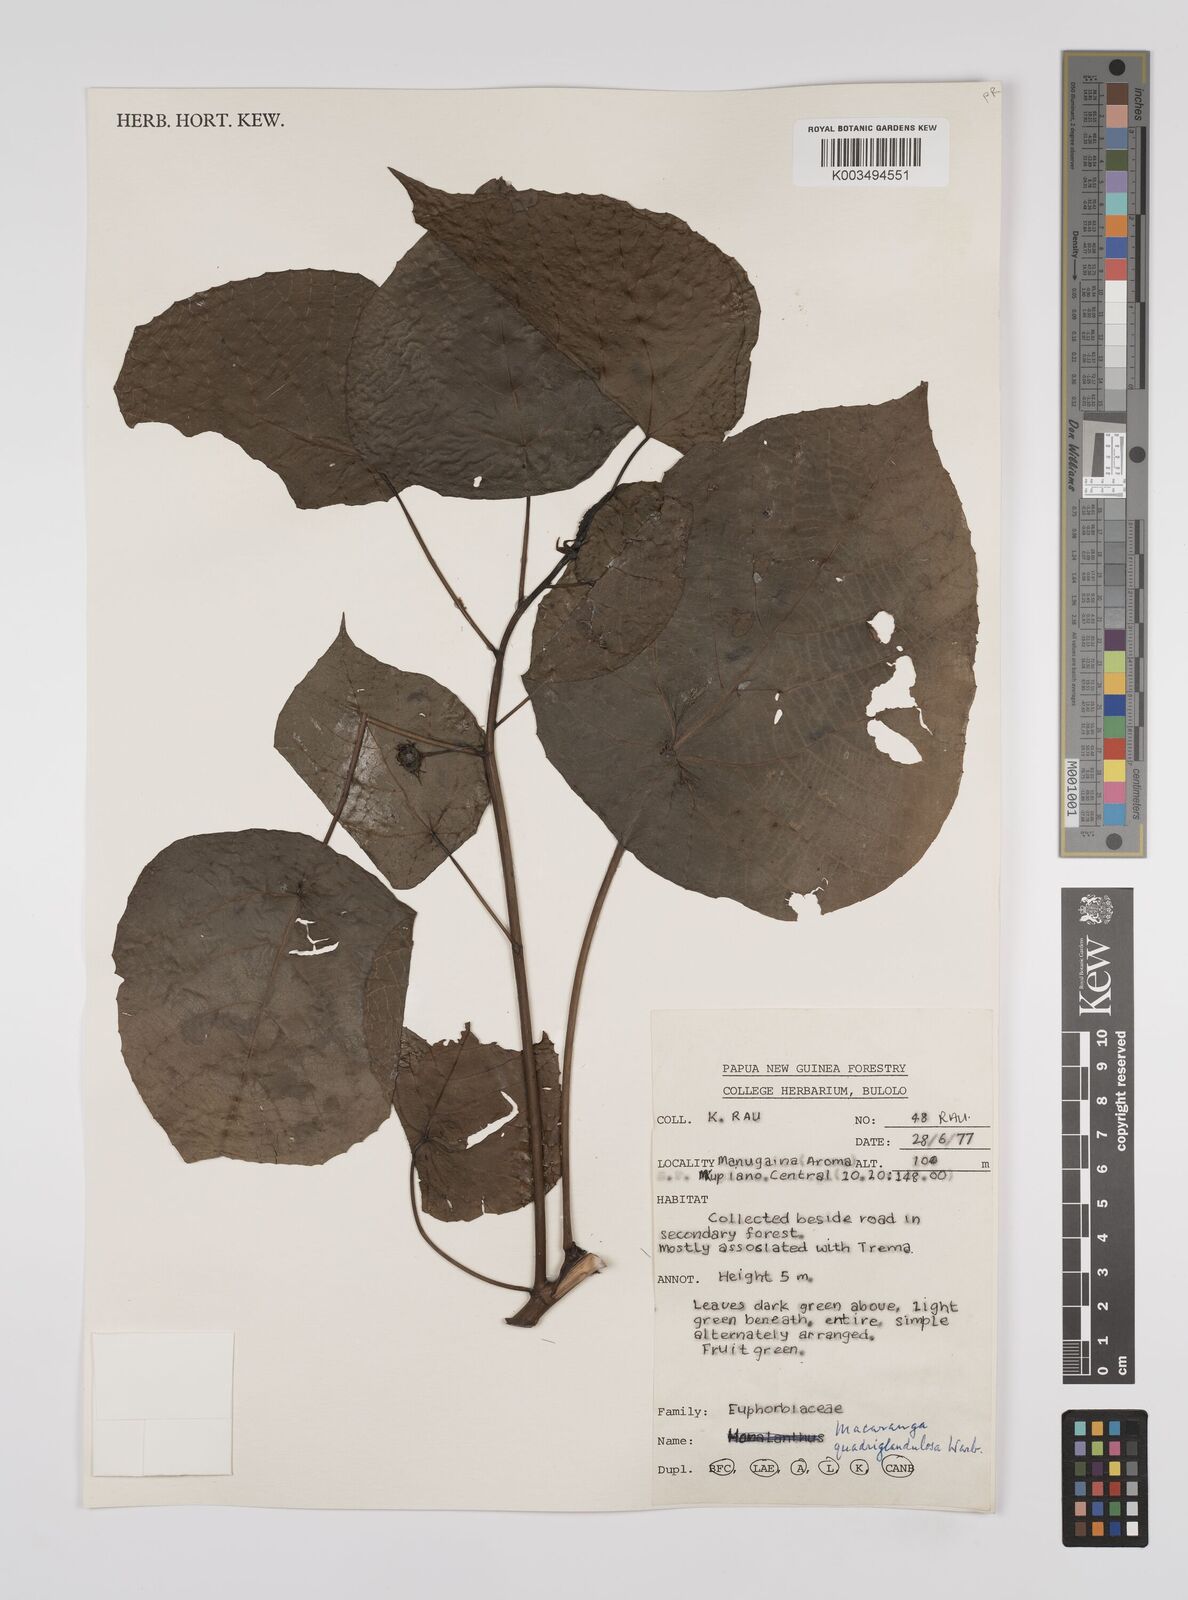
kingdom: Plantae
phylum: Tracheophyta
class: Magnoliopsida
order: Malpighiales
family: Euphorbiaceae
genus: Macaranga
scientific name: Macaranga quadriglandulosa
